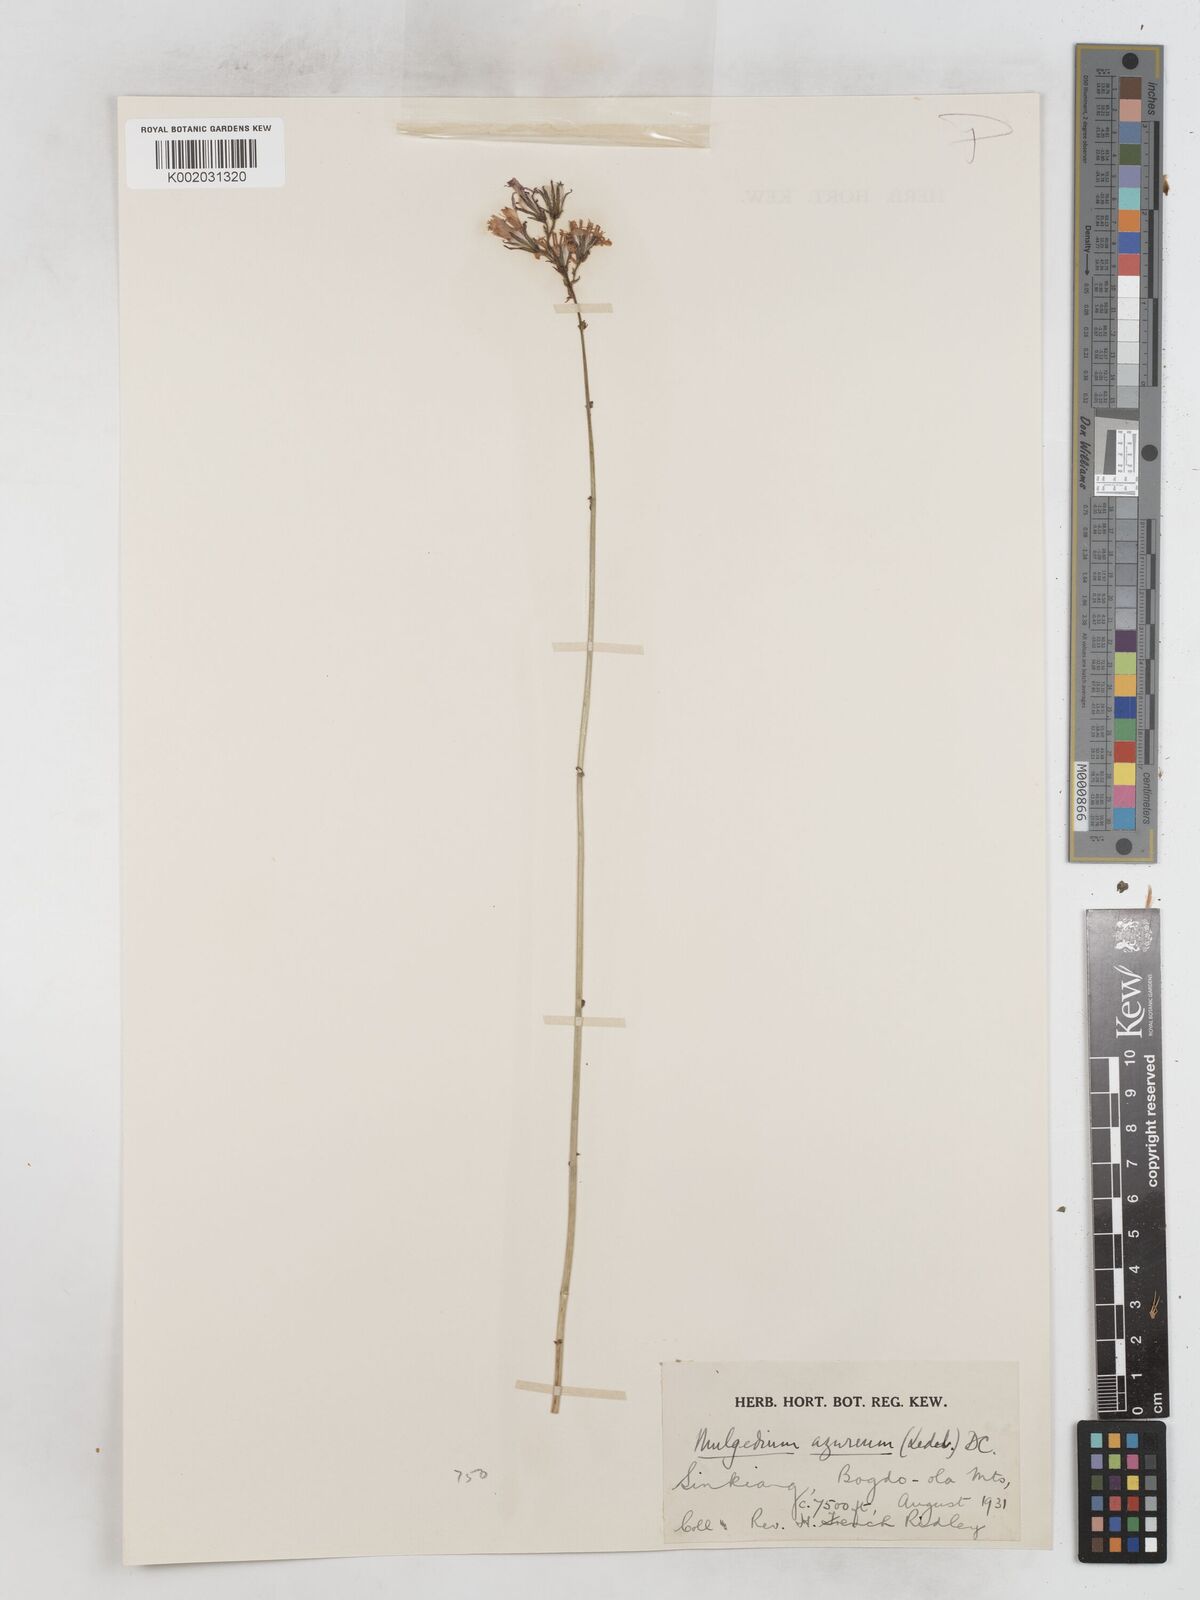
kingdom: Plantae
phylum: Tracheophyta
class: Magnoliopsida
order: Asterales
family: Asteraceae
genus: Cicerbita
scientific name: Cicerbita azurea
